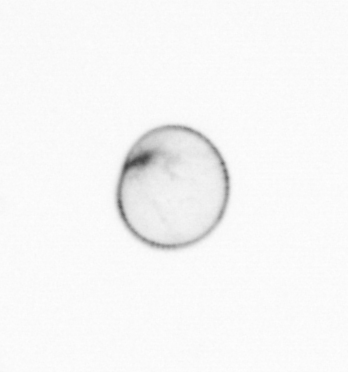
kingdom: Chromista
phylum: Myzozoa
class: Dinophyceae
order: Noctilucales
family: Noctilucaceae
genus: Noctiluca
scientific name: Noctiluca scintillans
